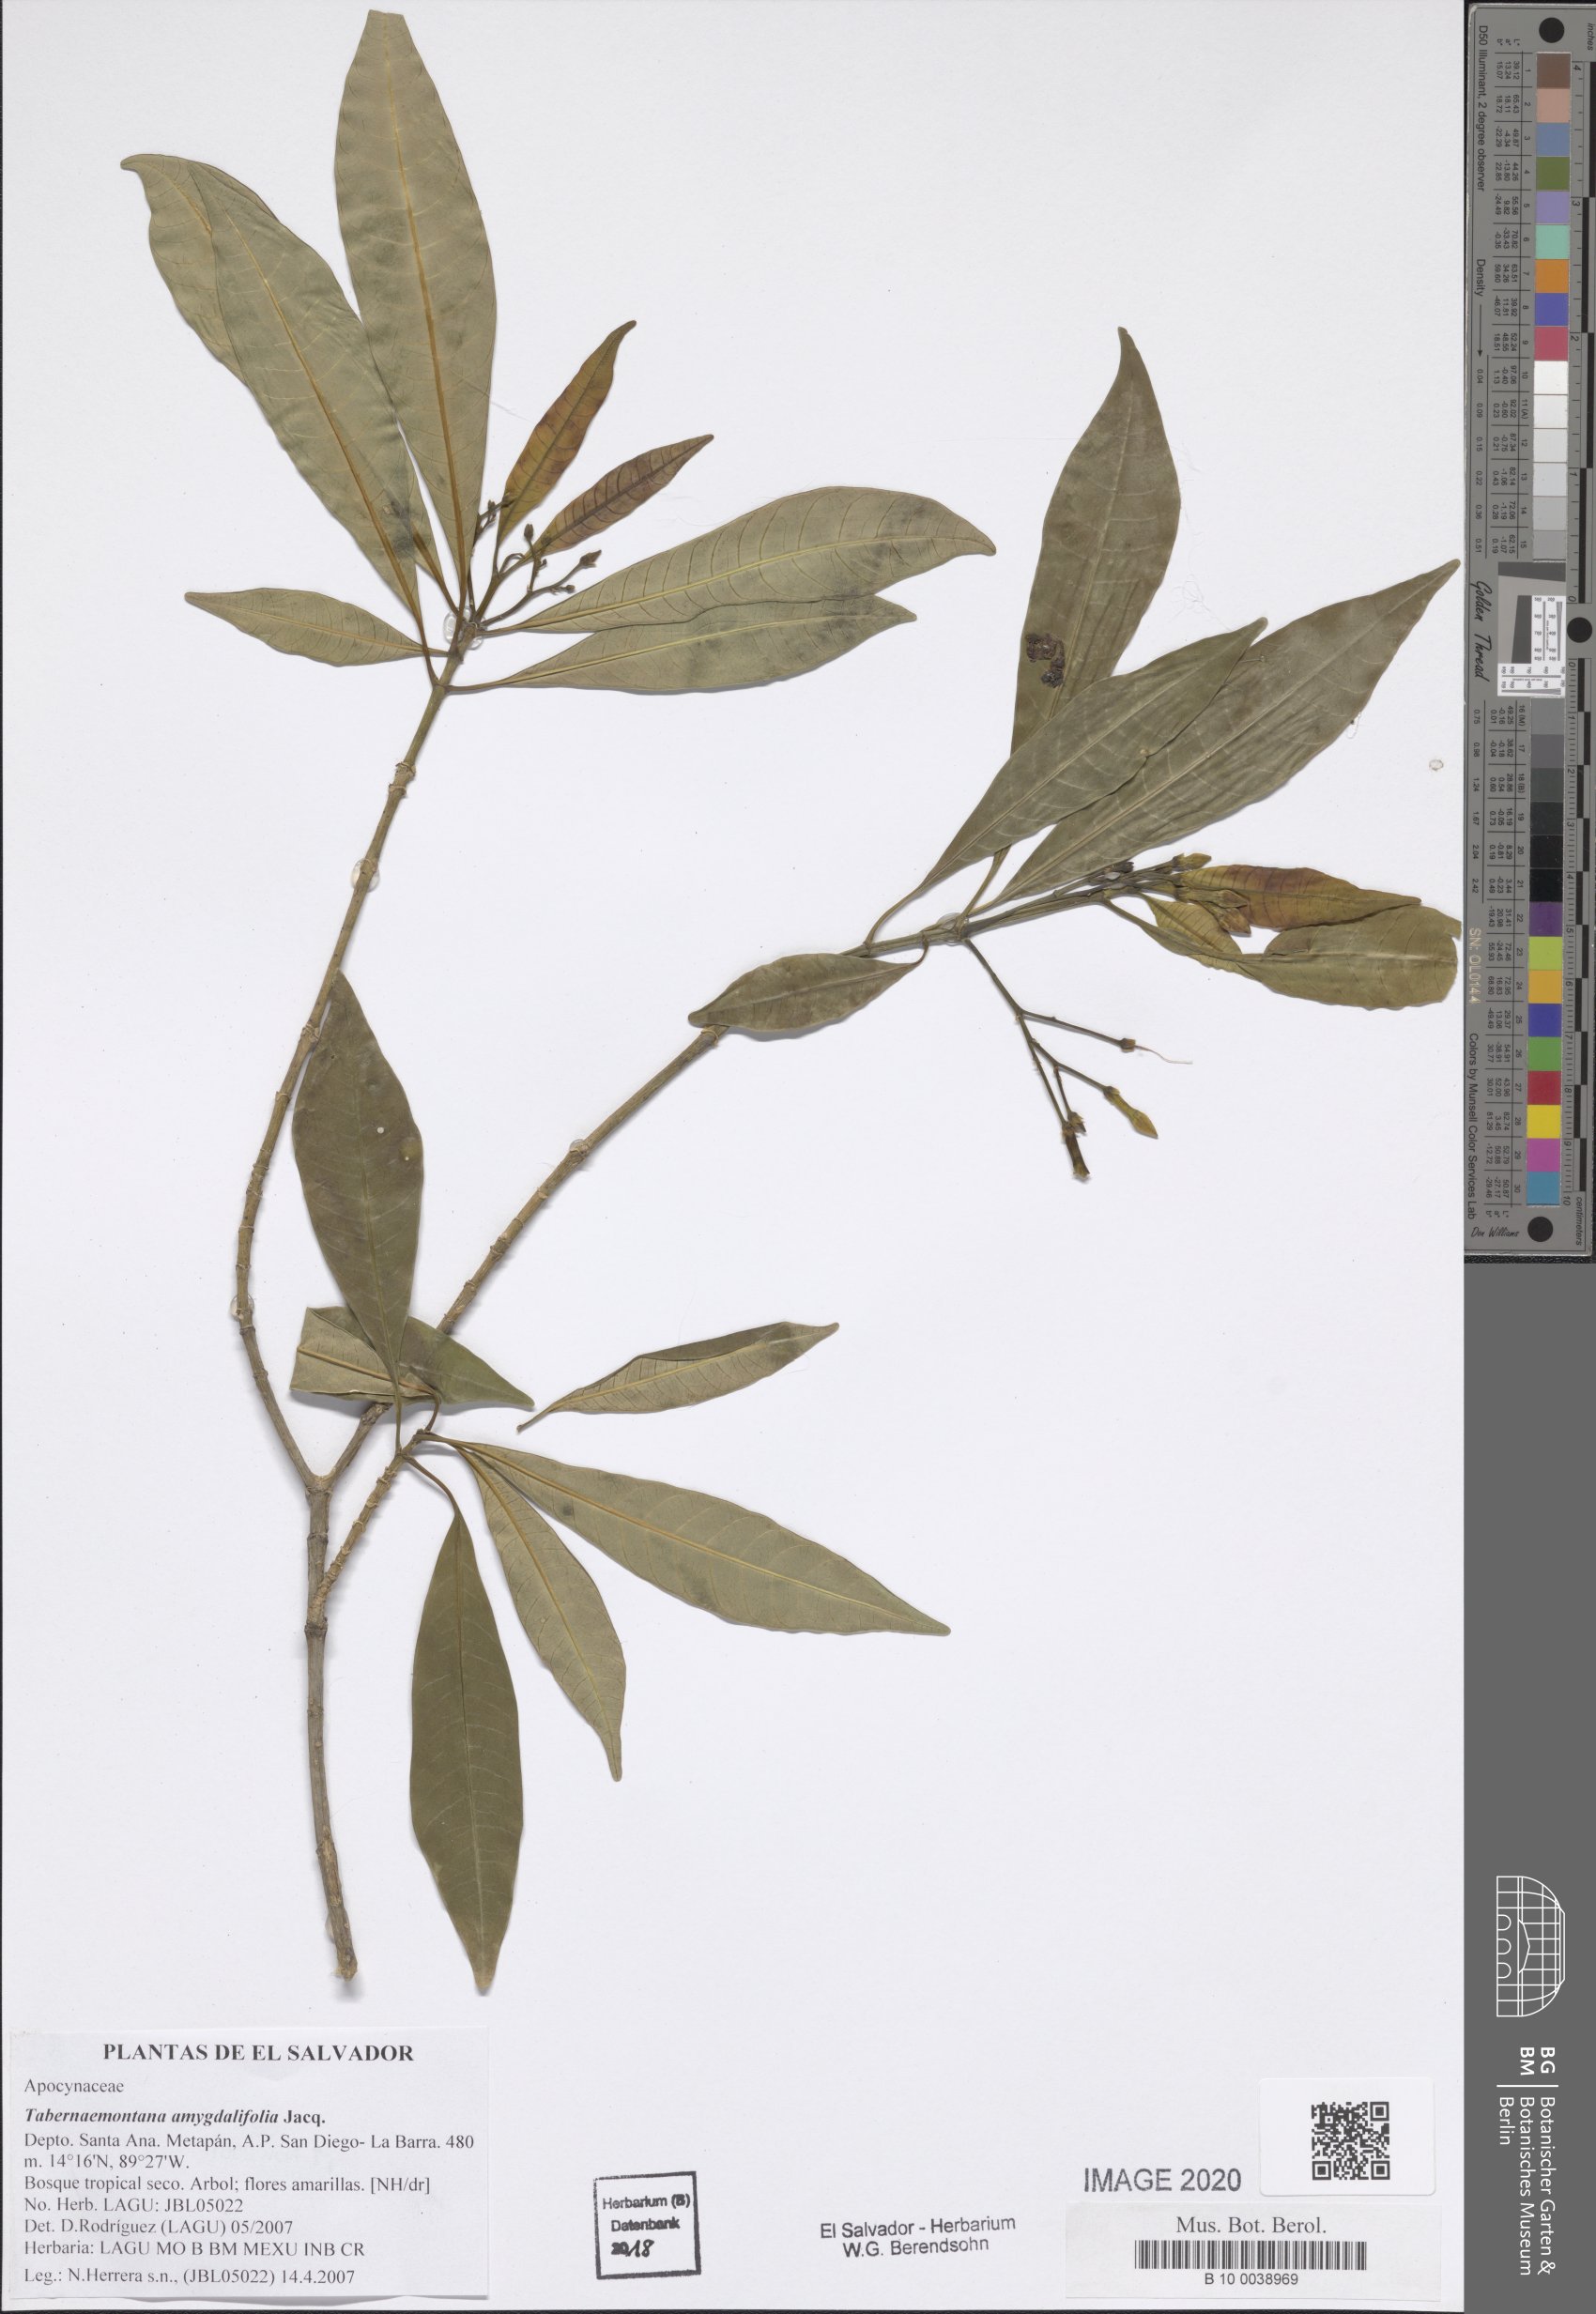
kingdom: Plantae
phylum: Tracheophyta
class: Magnoliopsida
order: Gentianales
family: Apocynaceae
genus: Tabernaemontana
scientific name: Tabernaemontana amygdalifolia
